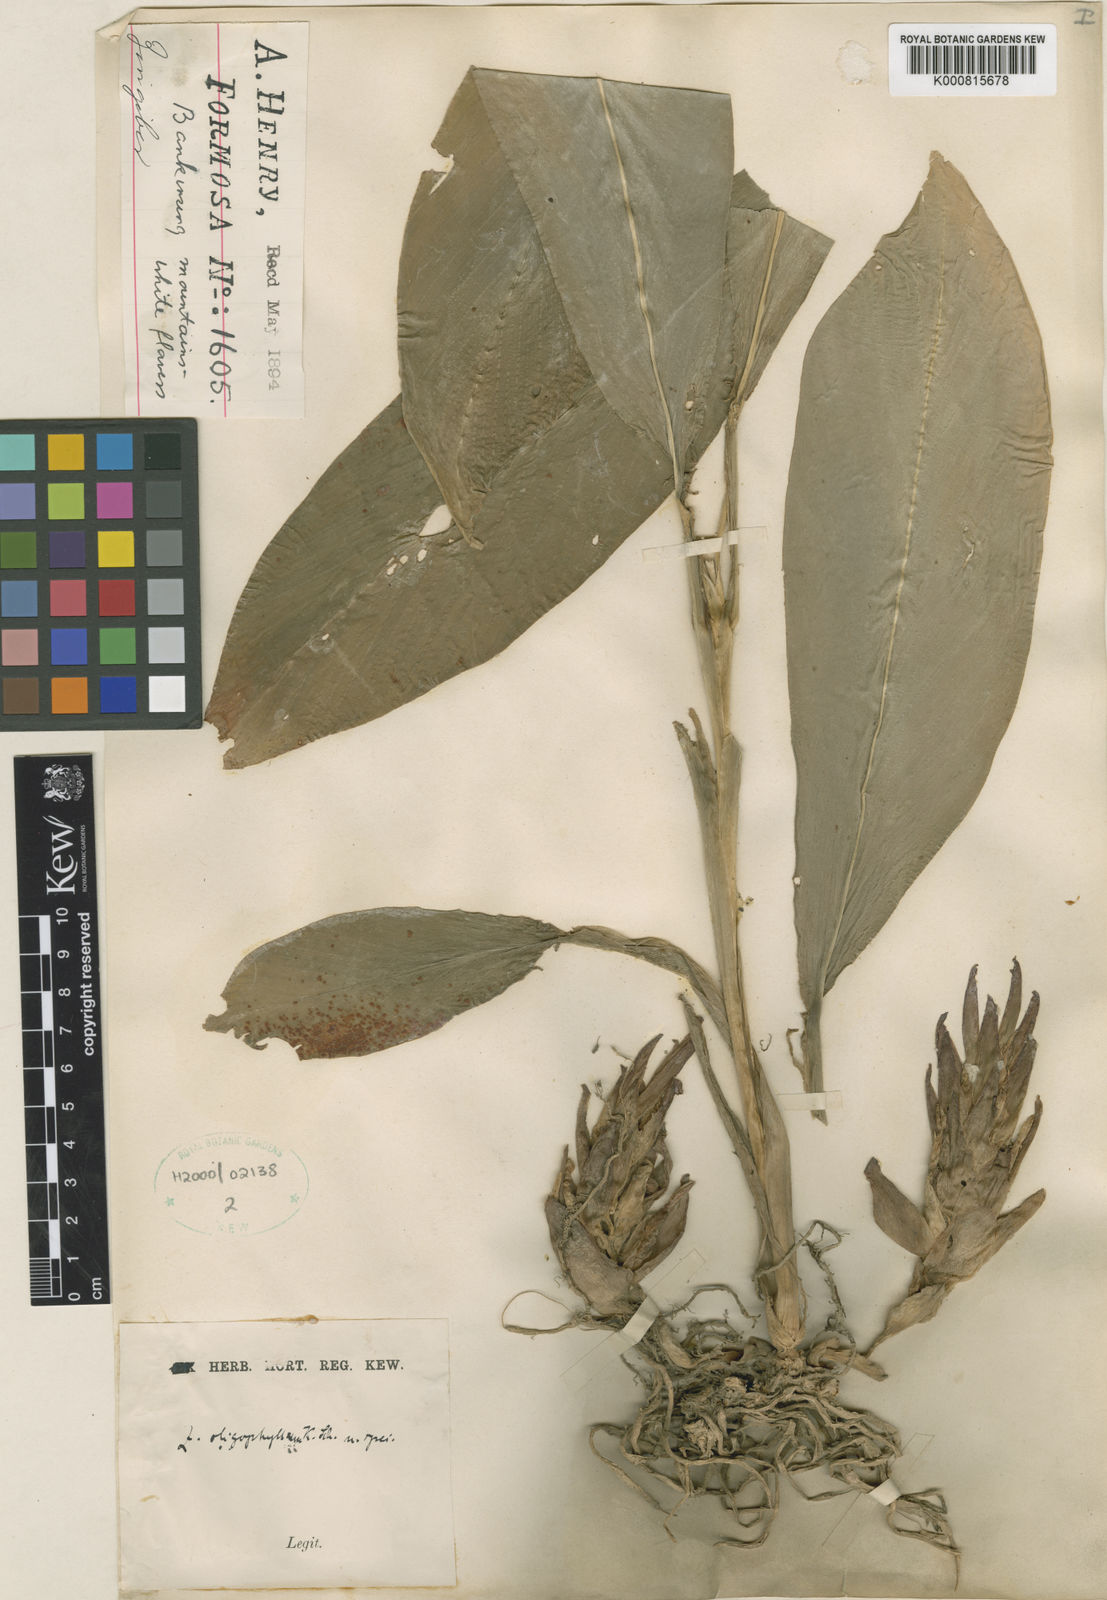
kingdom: Plantae
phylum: Tracheophyta
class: Liliopsida
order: Zingiberales
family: Zingiberaceae
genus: Zingiber
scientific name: Zingiber oligophyllum
